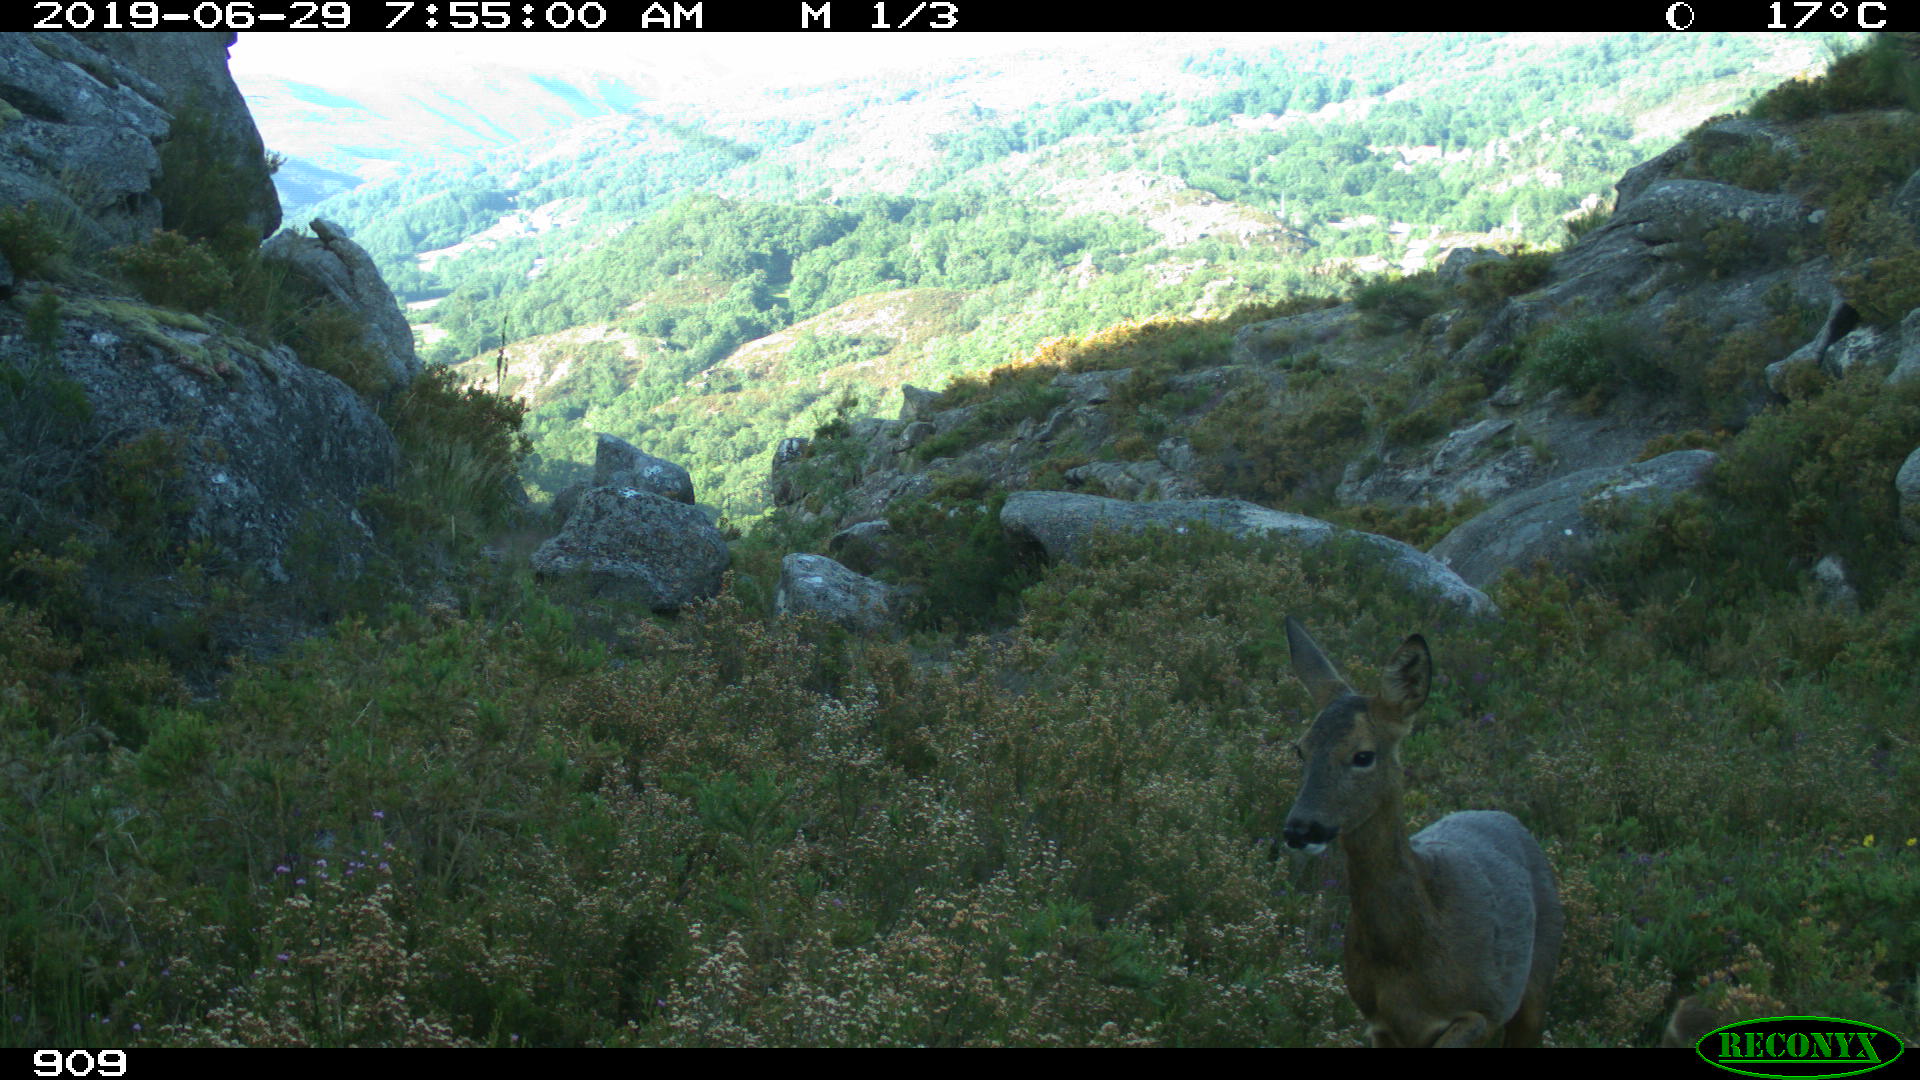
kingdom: Animalia
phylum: Chordata
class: Mammalia
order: Artiodactyla
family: Cervidae
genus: Capreolus
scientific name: Capreolus capreolus
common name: Western roe deer
